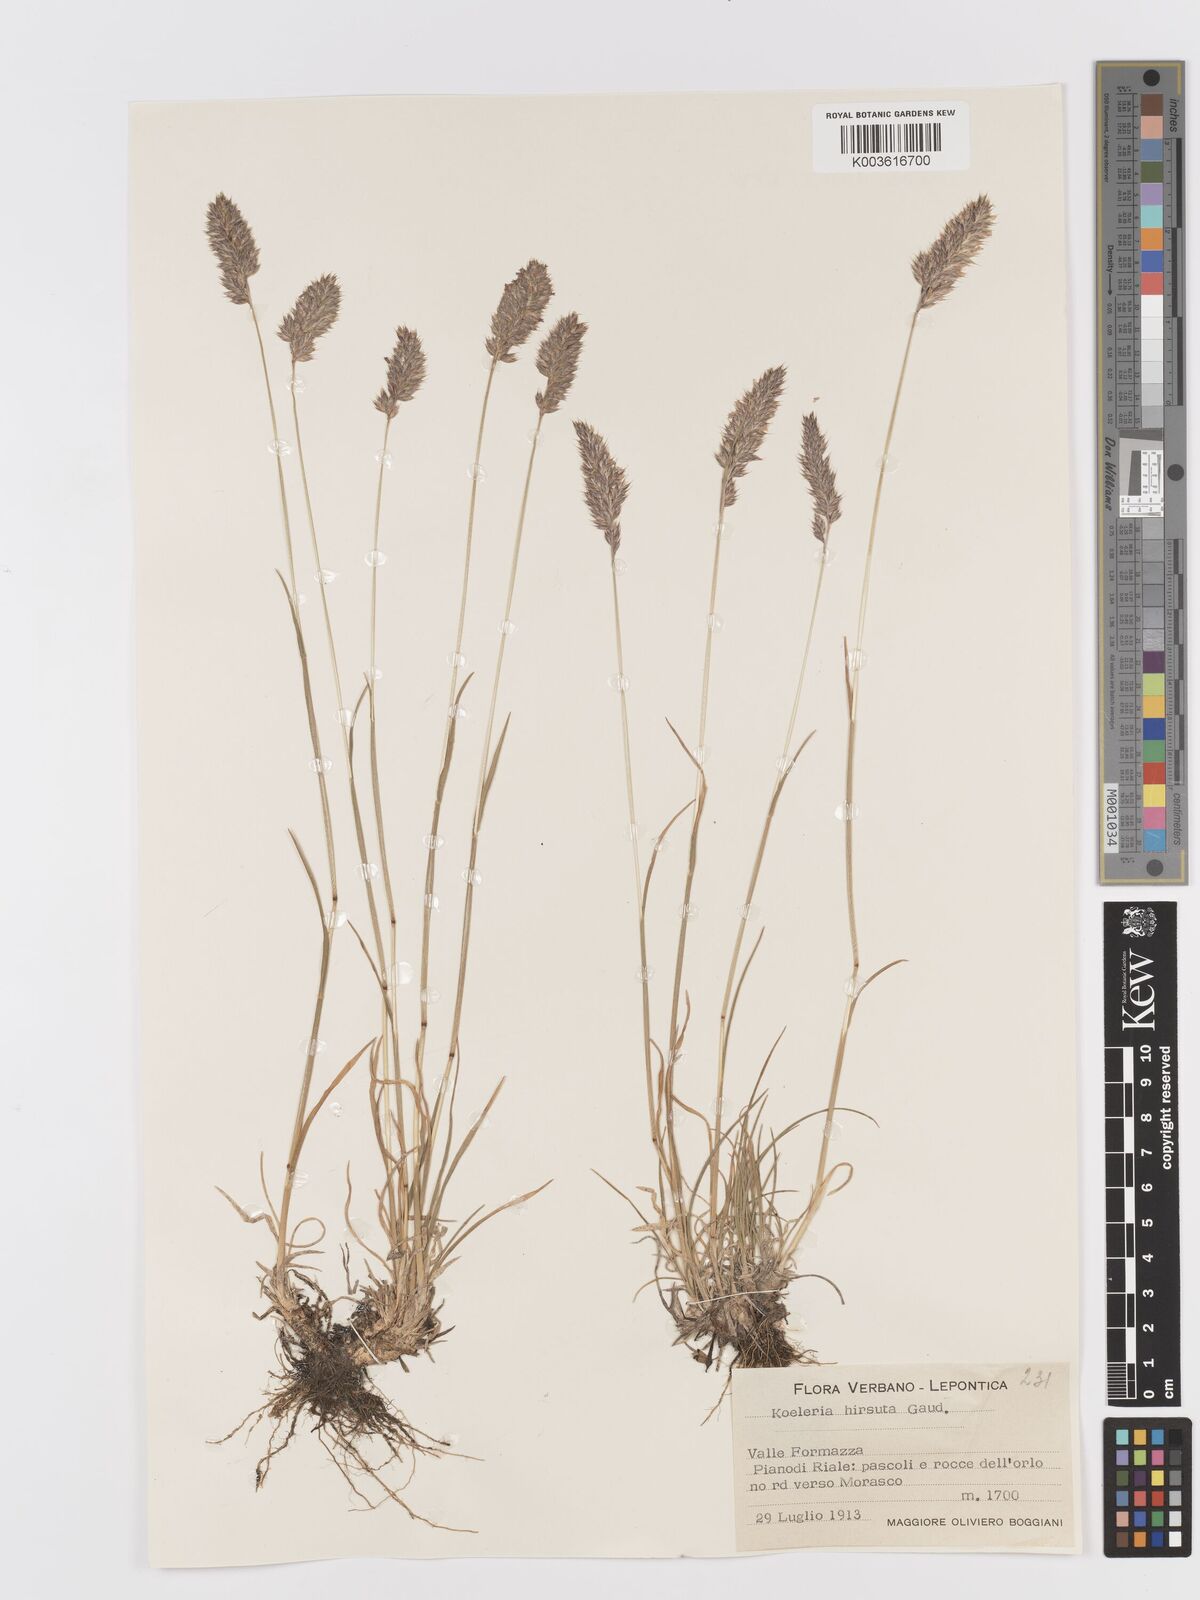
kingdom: Plantae
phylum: Tracheophyta
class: Liliopsida
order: Poales
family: Poaceae
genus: Koeleria
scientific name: Koeleria hirsuta
